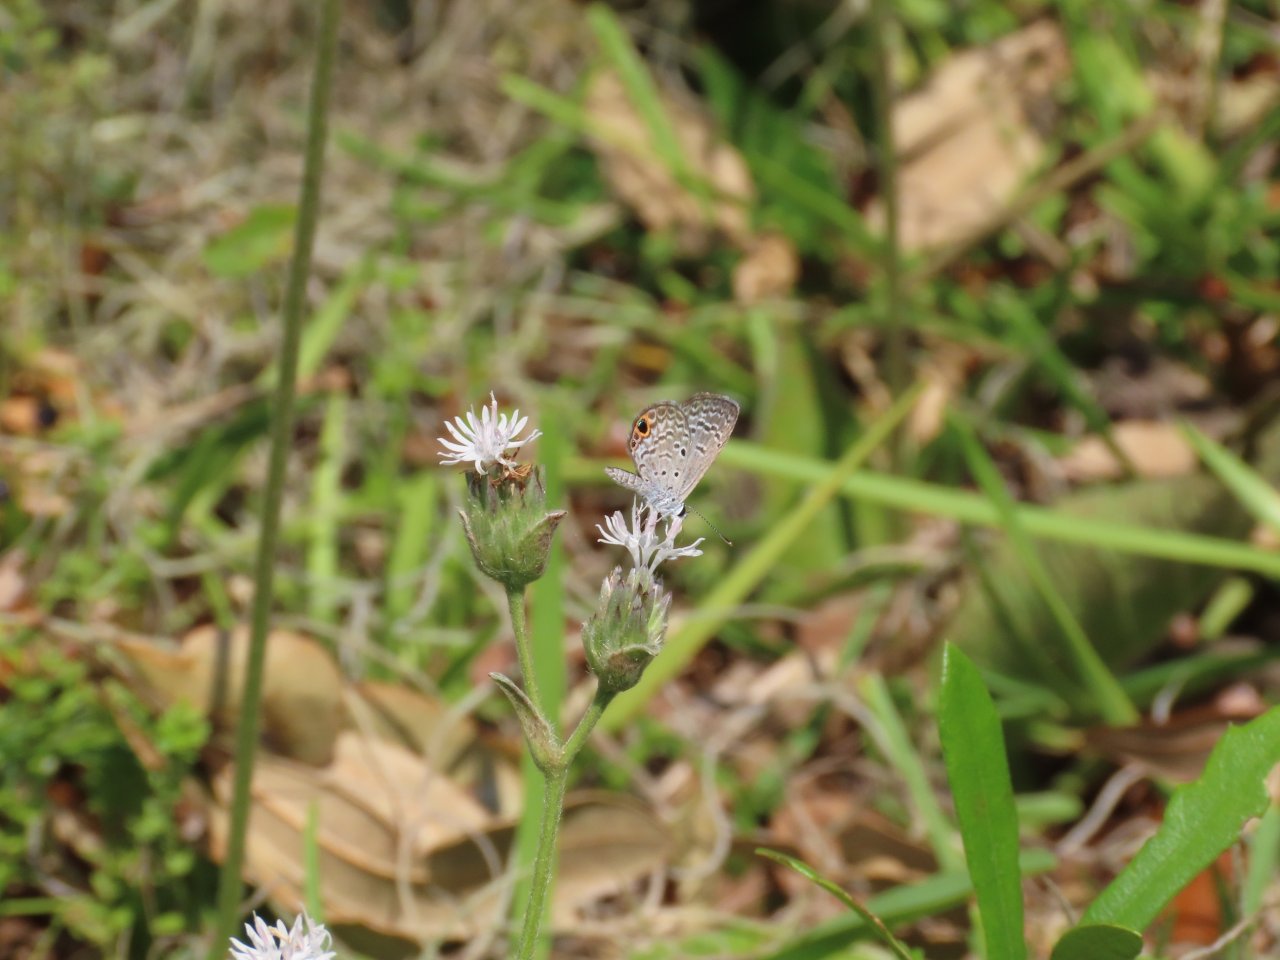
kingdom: Animalia
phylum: Arthropoda
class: Insecta
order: Lepidoptera
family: Lycaenidae
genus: Hemiargus
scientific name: Hemiargus ceraunus
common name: Ceraunus Blue
